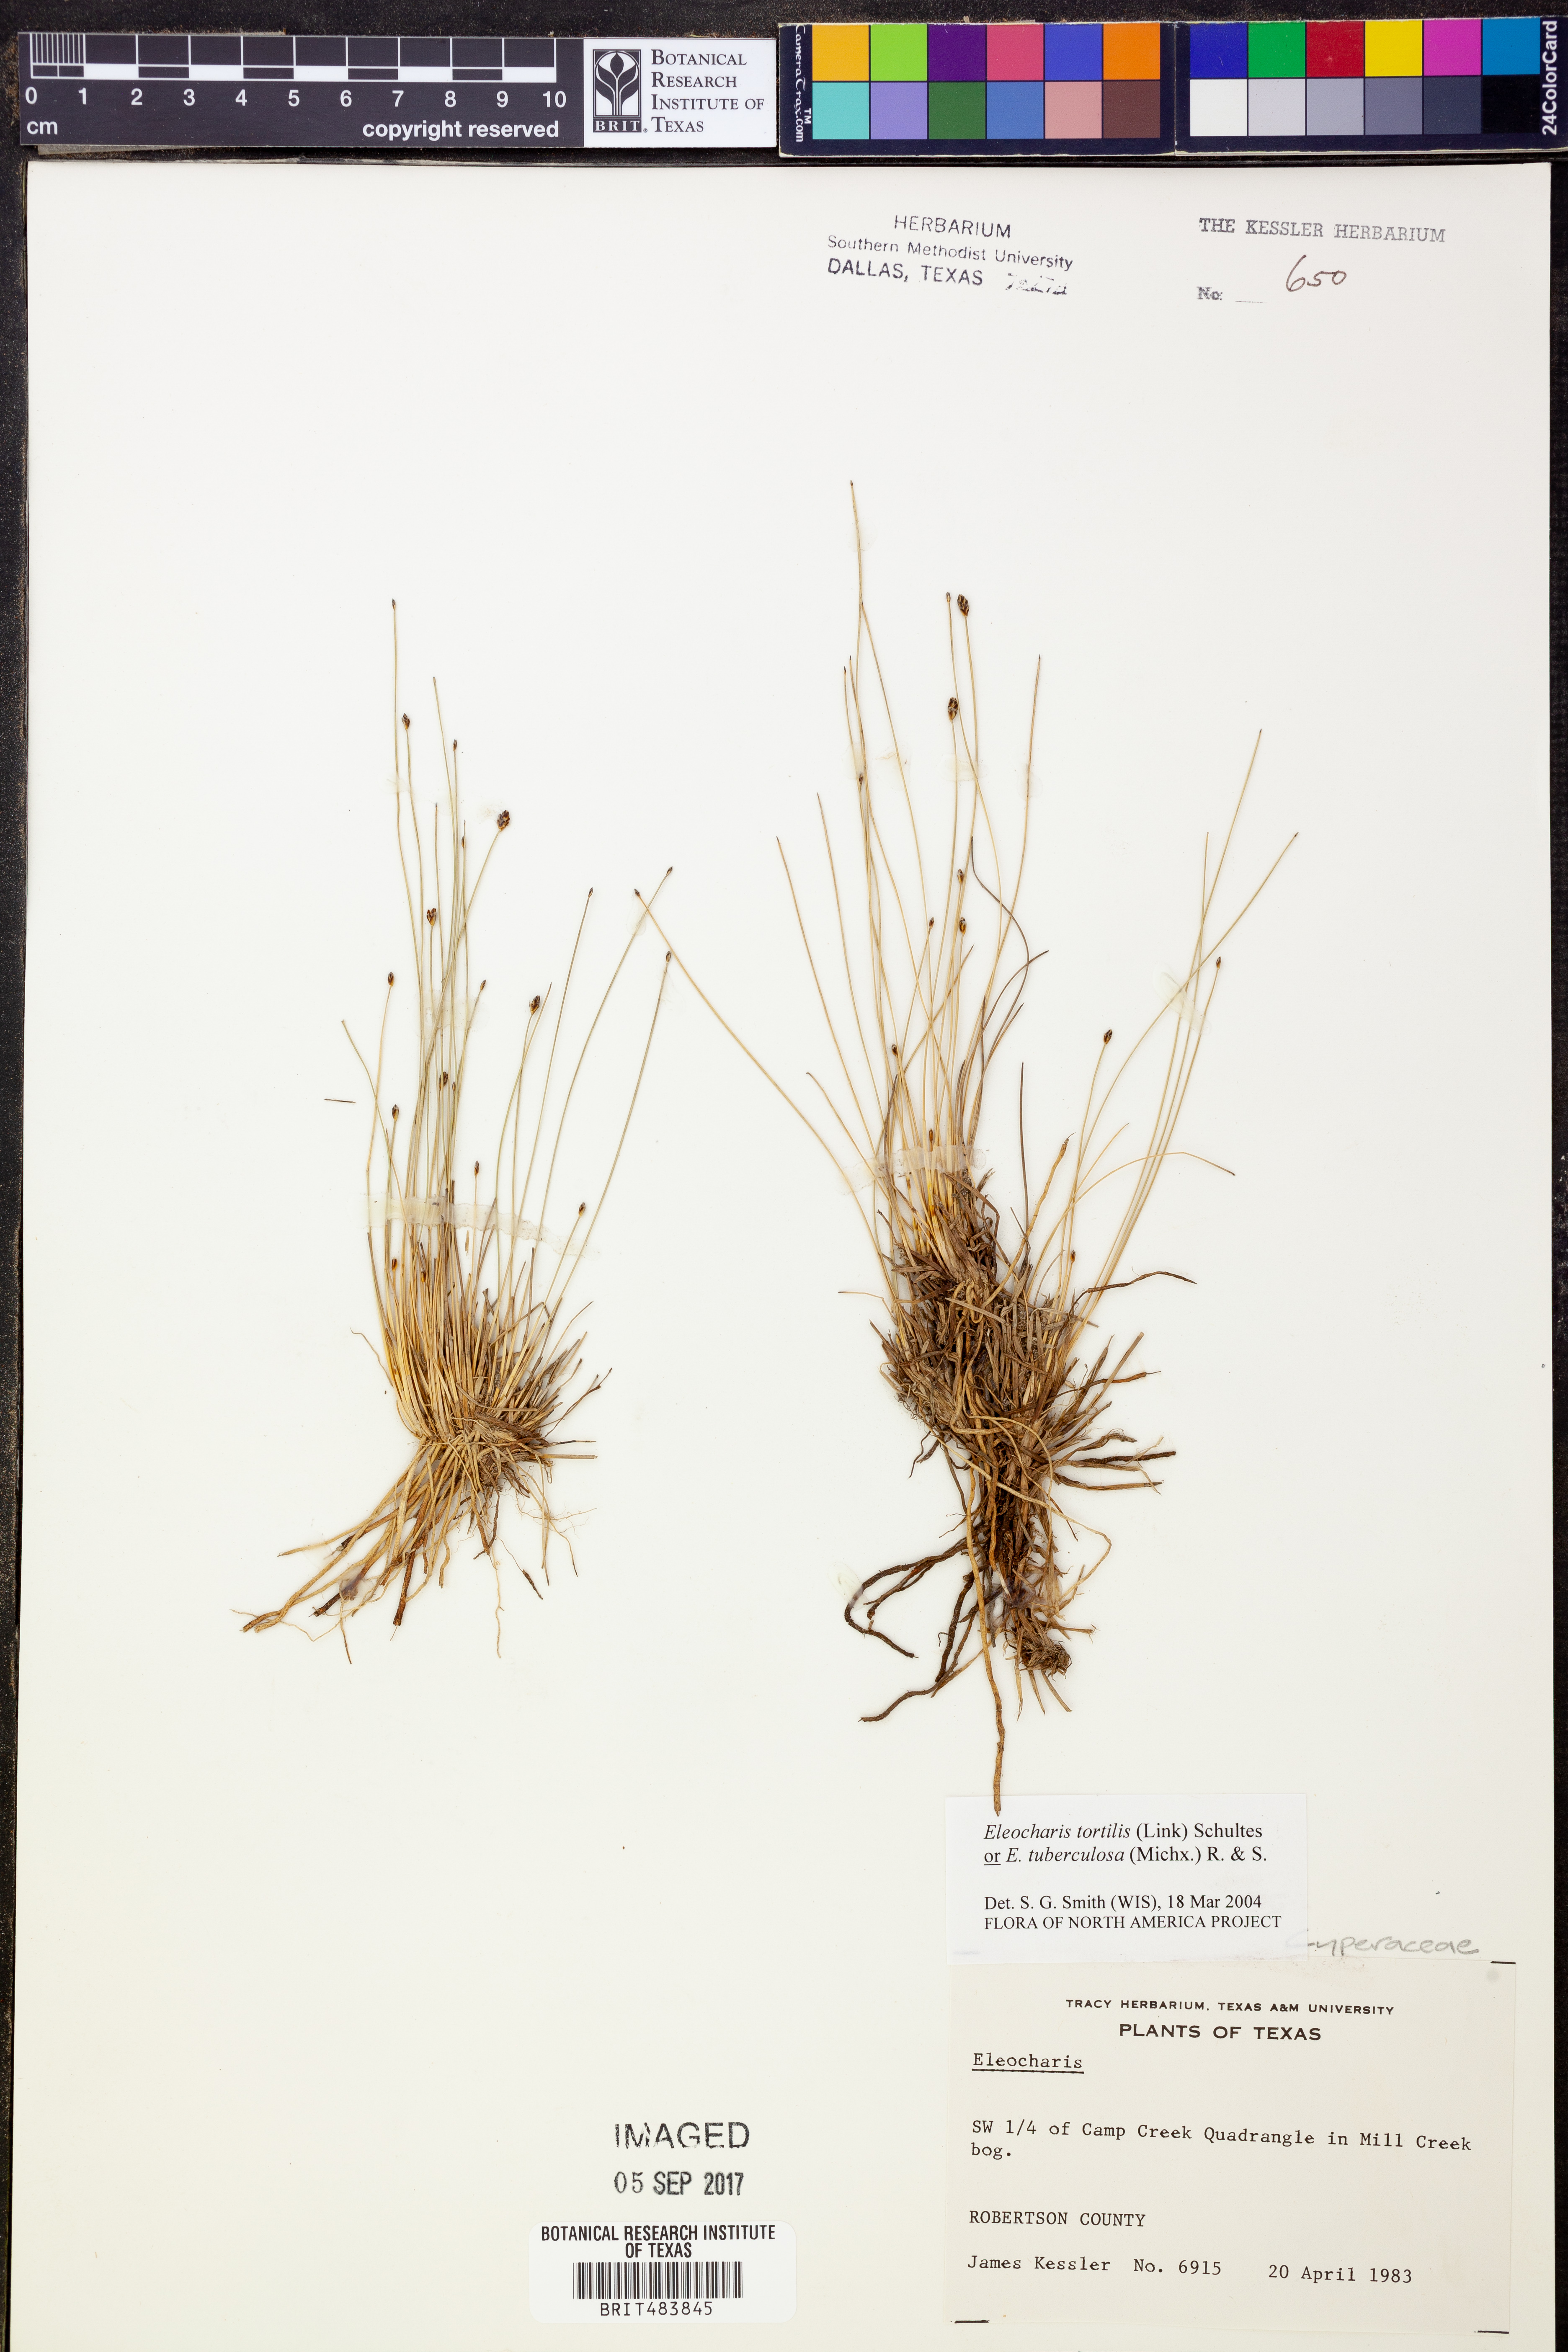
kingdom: Plantae
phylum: Tracheophyta
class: Liliopsida
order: Poales
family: Cyperaceae
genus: Eleocharis
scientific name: Eleocharis
